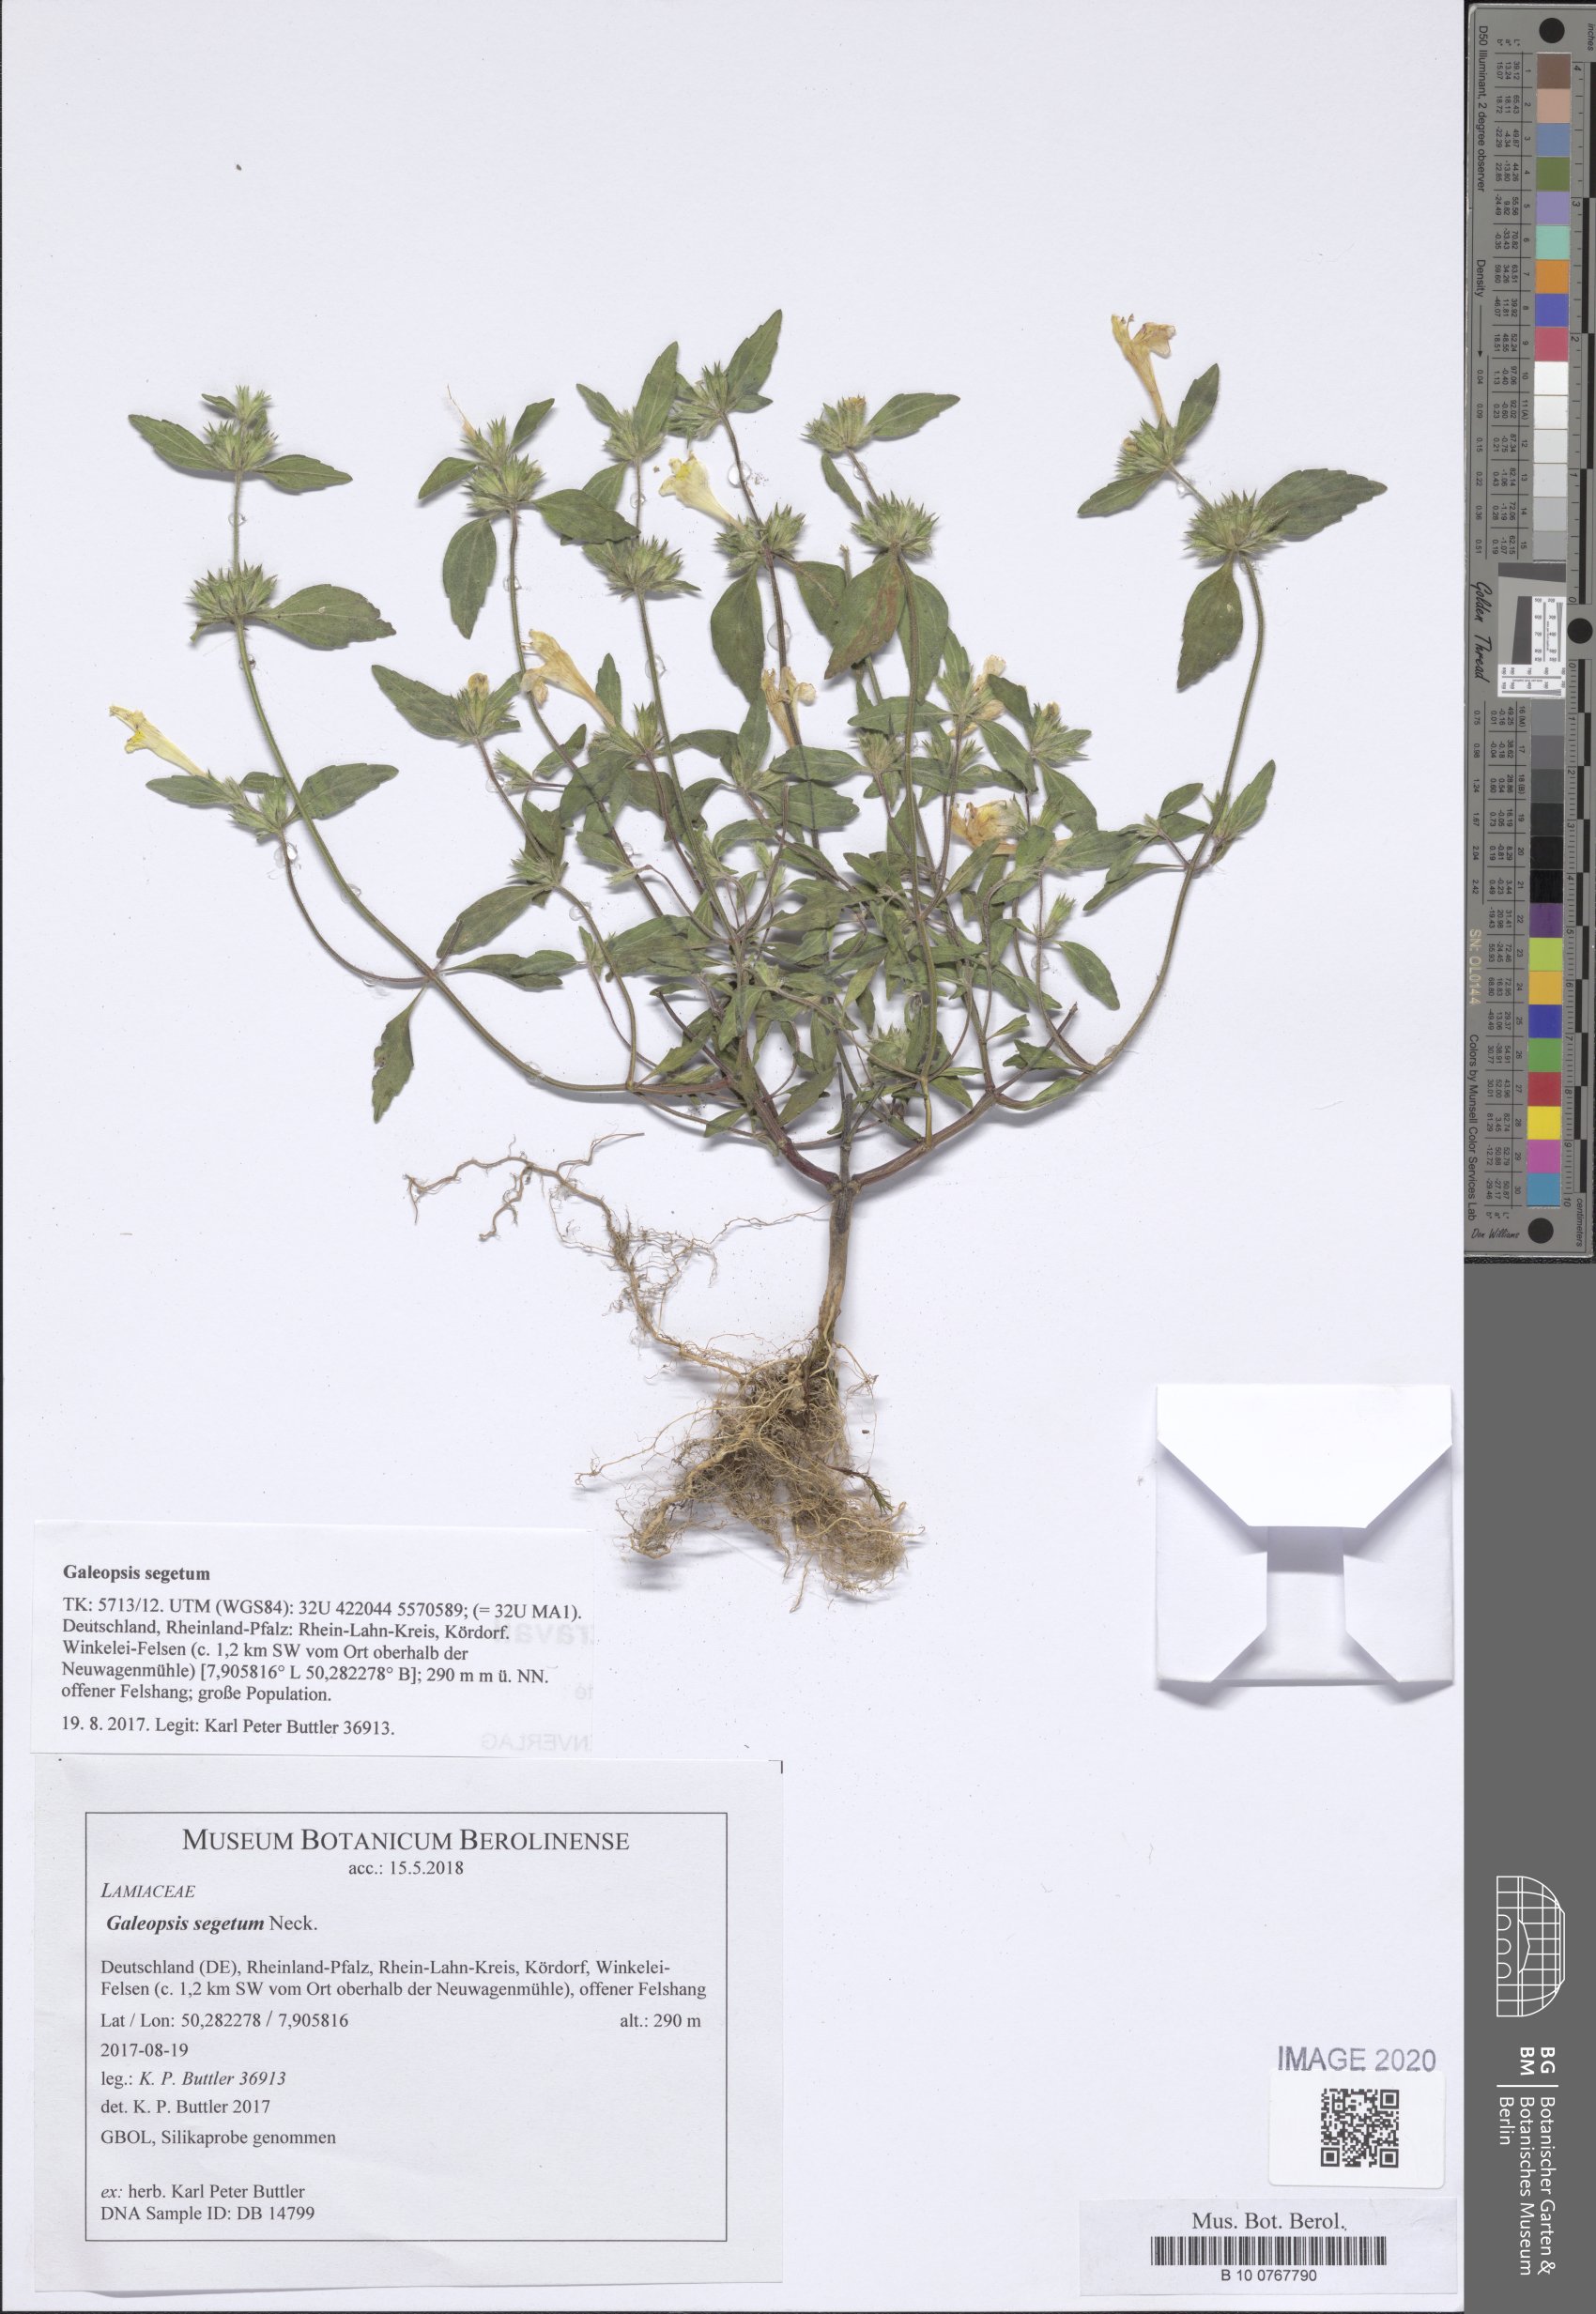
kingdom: Plantae
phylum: Tracheophyta
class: Magnoliopsida
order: Lamiales
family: Lamiaceae
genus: Galeopsis
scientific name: Galeopsis segetum
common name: Downy hemp-nettle
